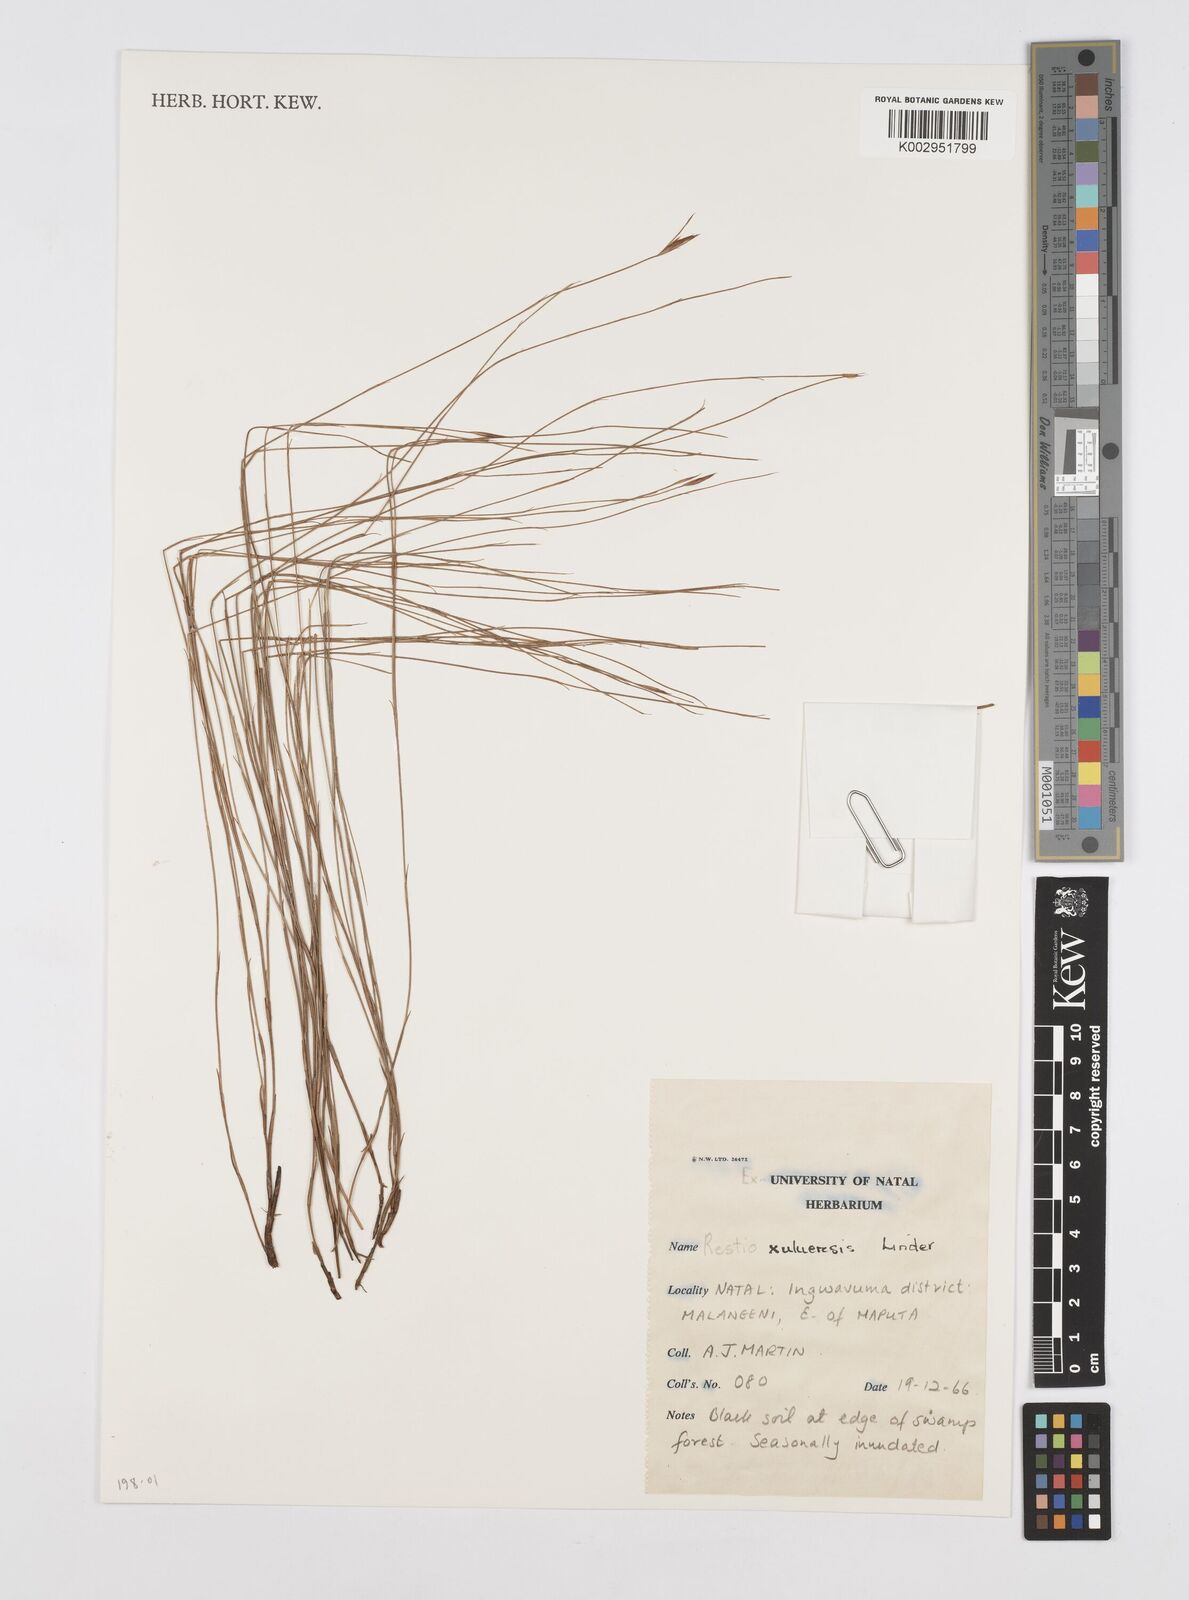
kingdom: Plantae
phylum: Tracheophyta
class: Liliopsida
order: Poales
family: Restionaceae
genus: Restio
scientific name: Restio zuluensis
